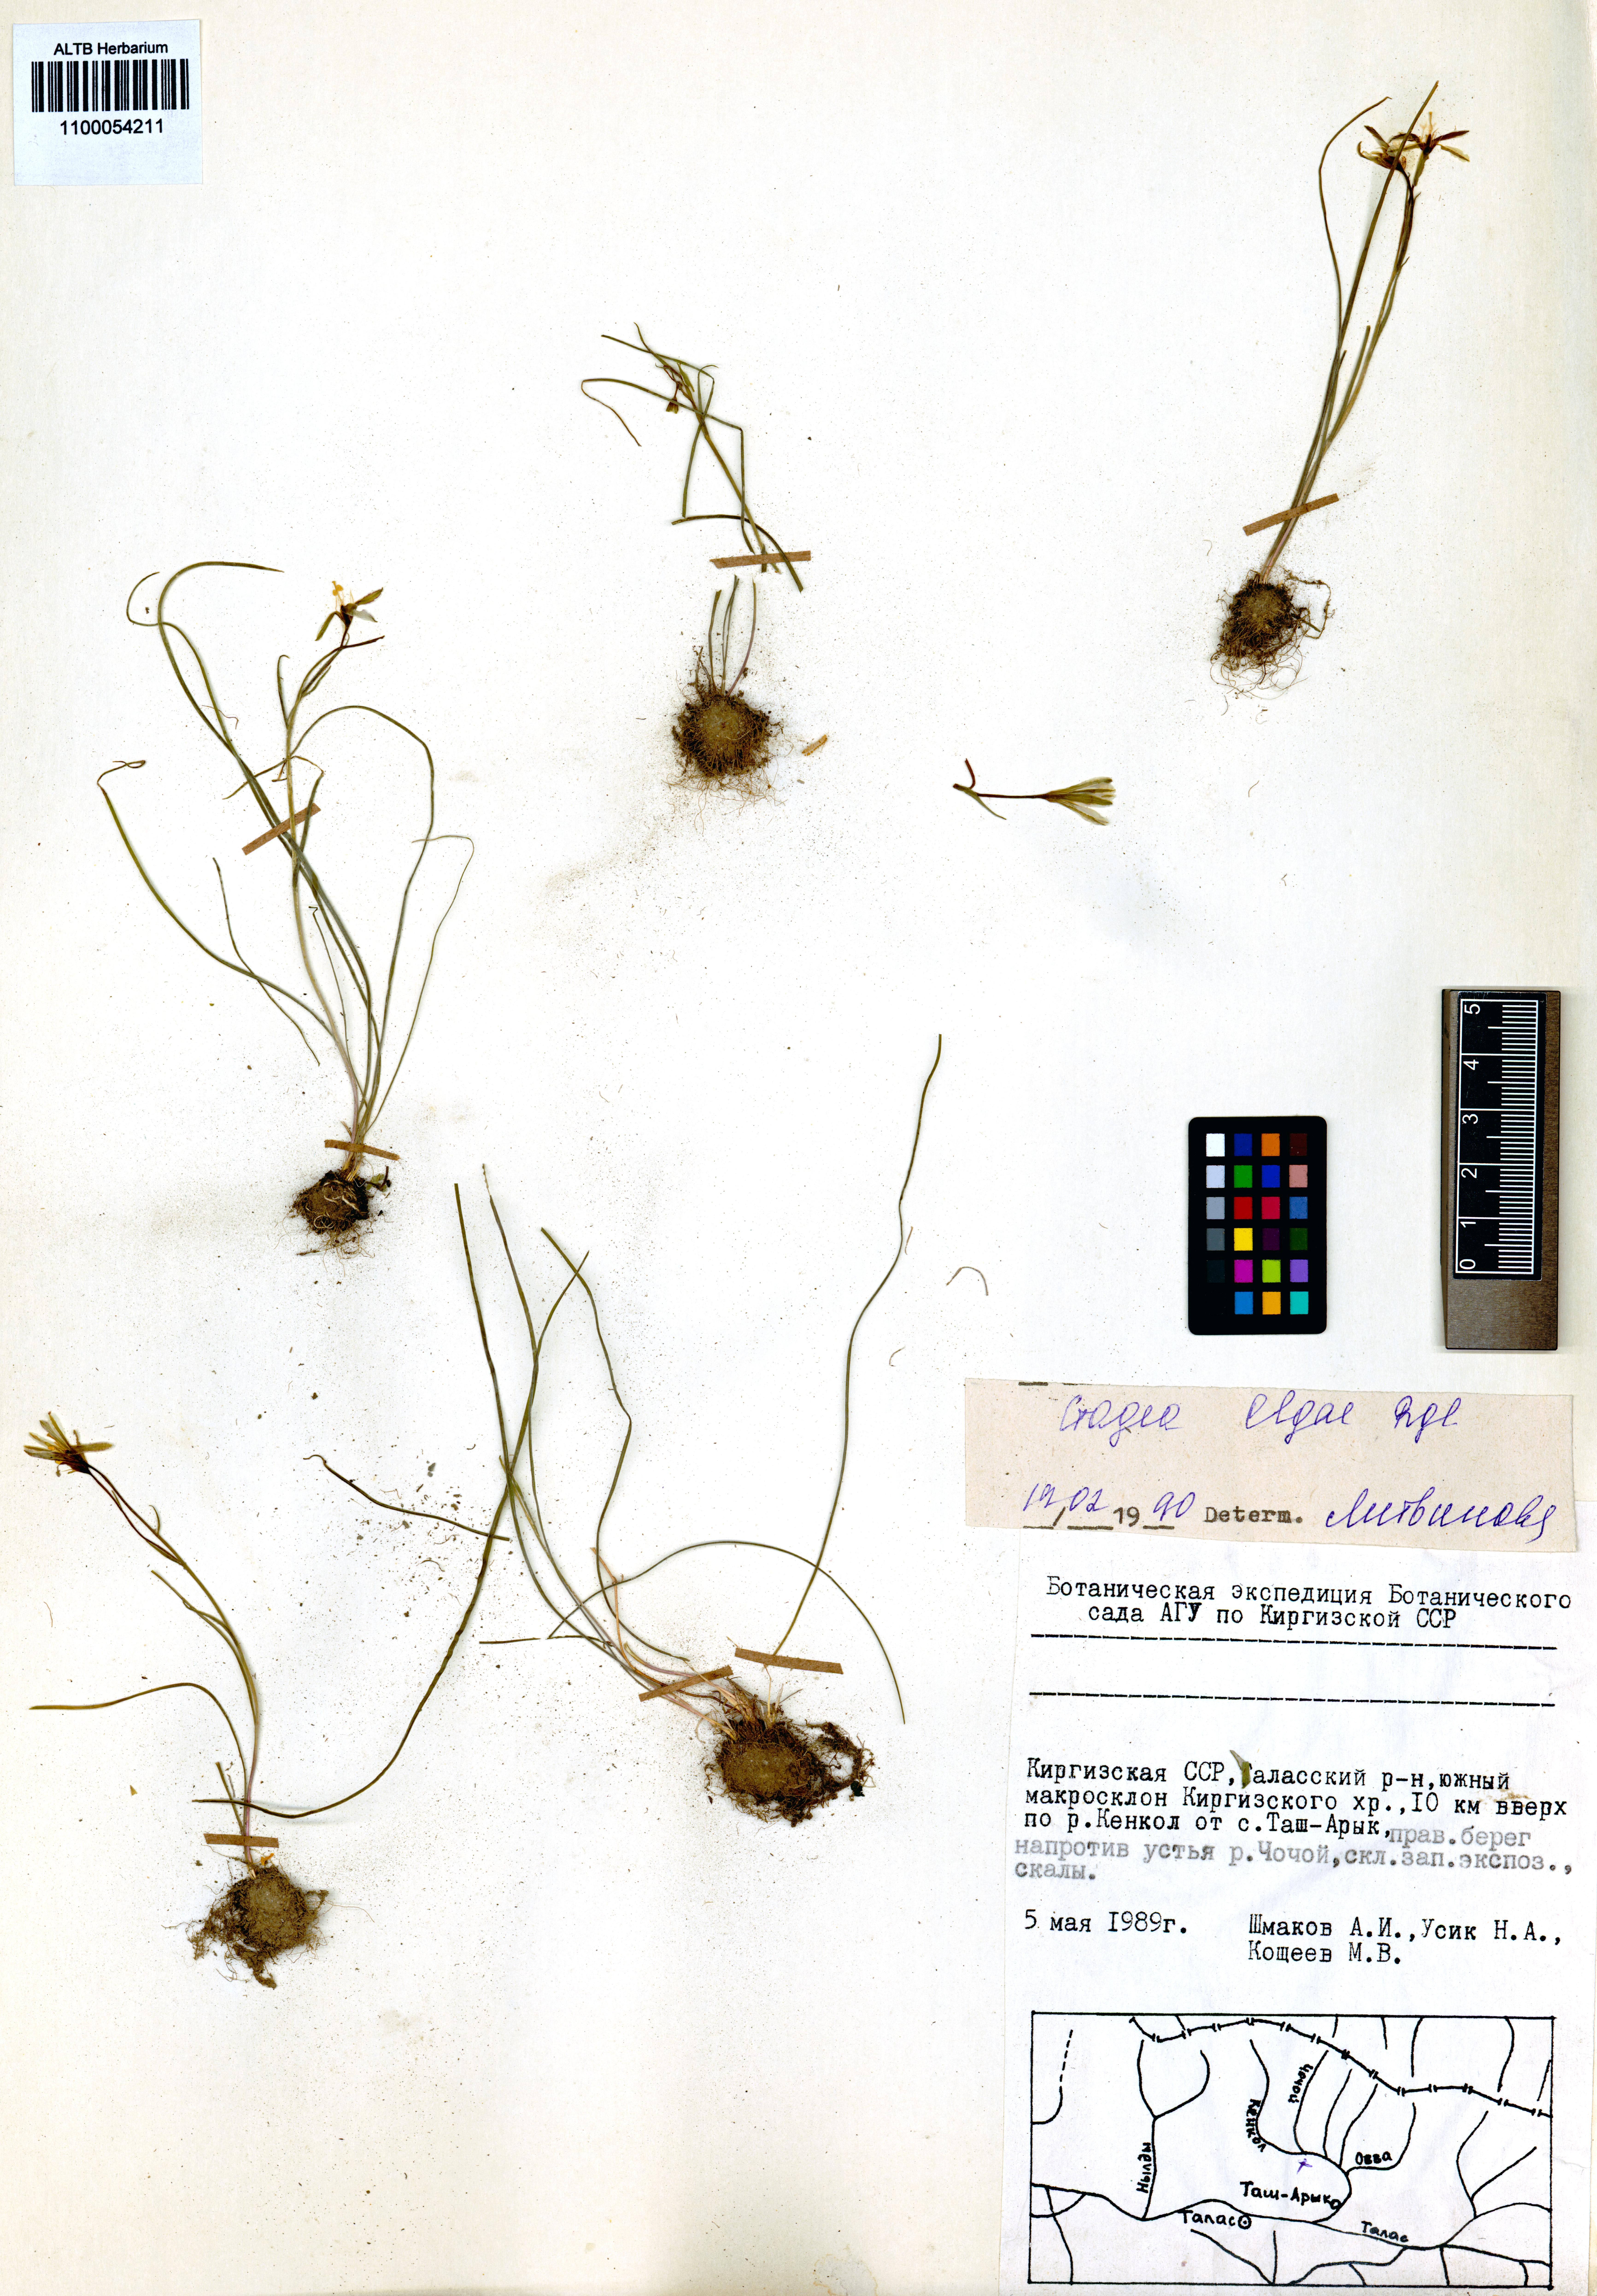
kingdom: Plantae
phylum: Tracheophyta
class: Liliopsida
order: Liliales
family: Liliaceae
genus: Gagea
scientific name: Gagea olgae
